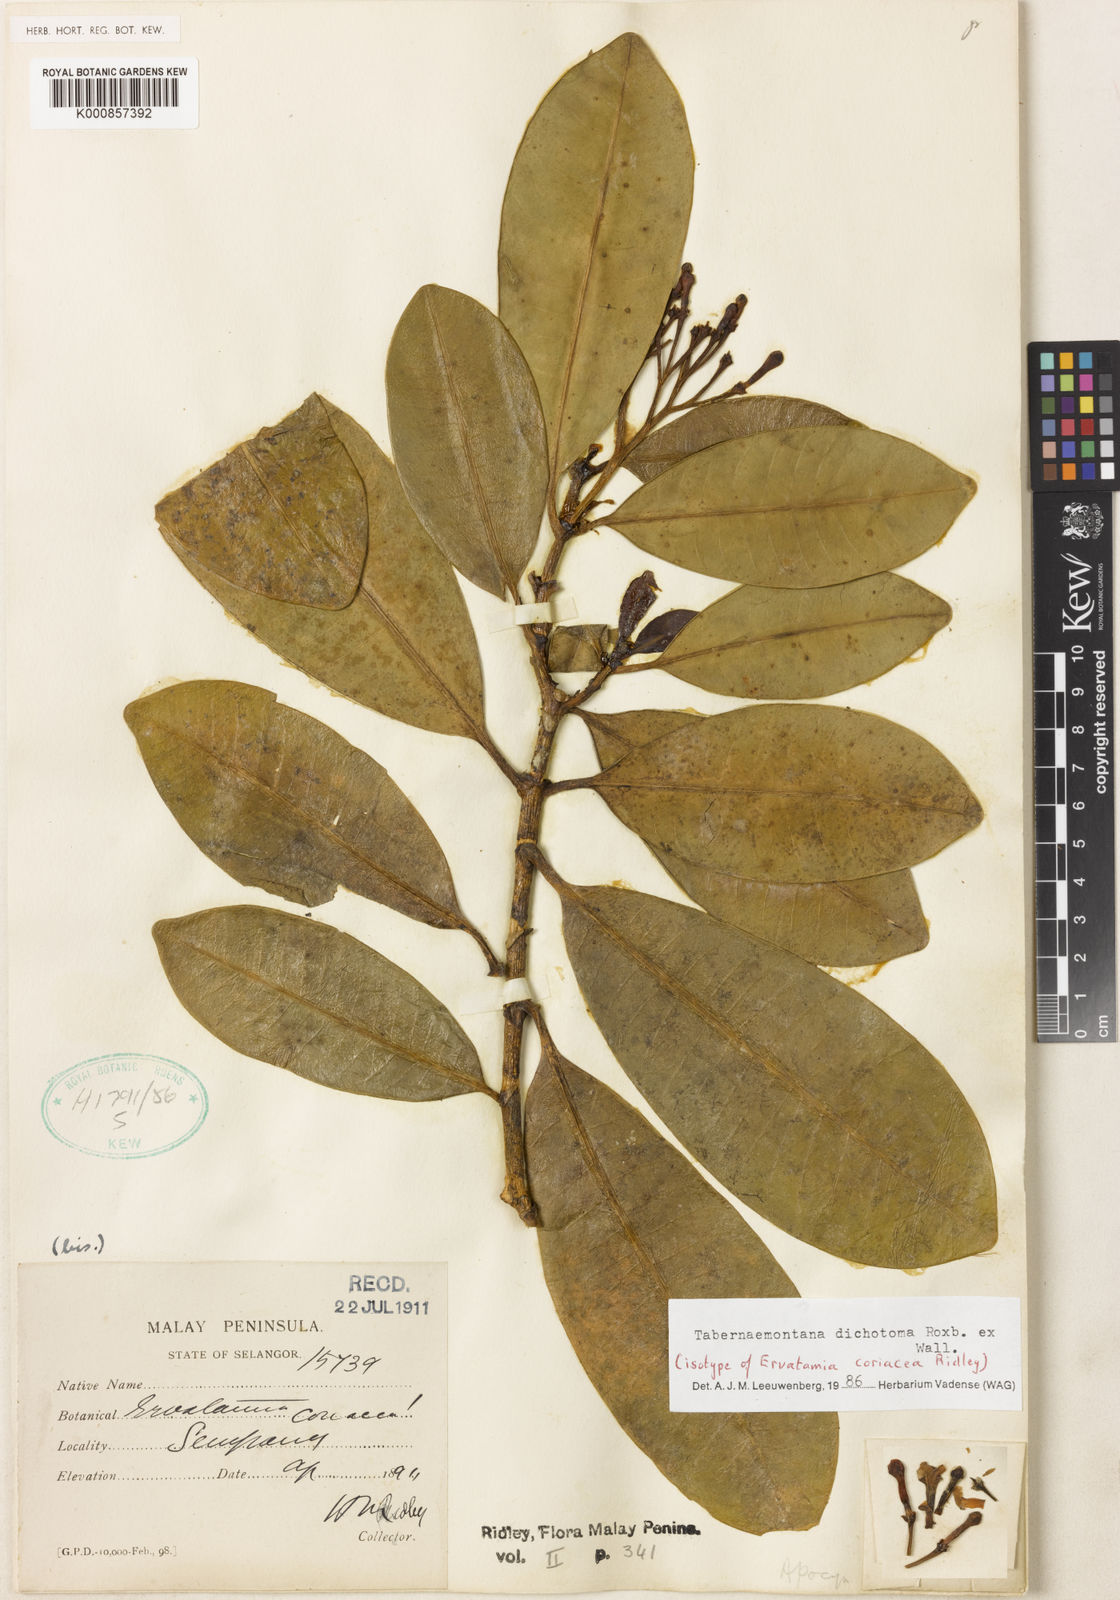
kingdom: Plantae
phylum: Tracheophyta
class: Magnoliopsida
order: Gentianales
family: Apocynaceae
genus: Tabernaemontana
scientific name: Tabernaemontana dichotoma
